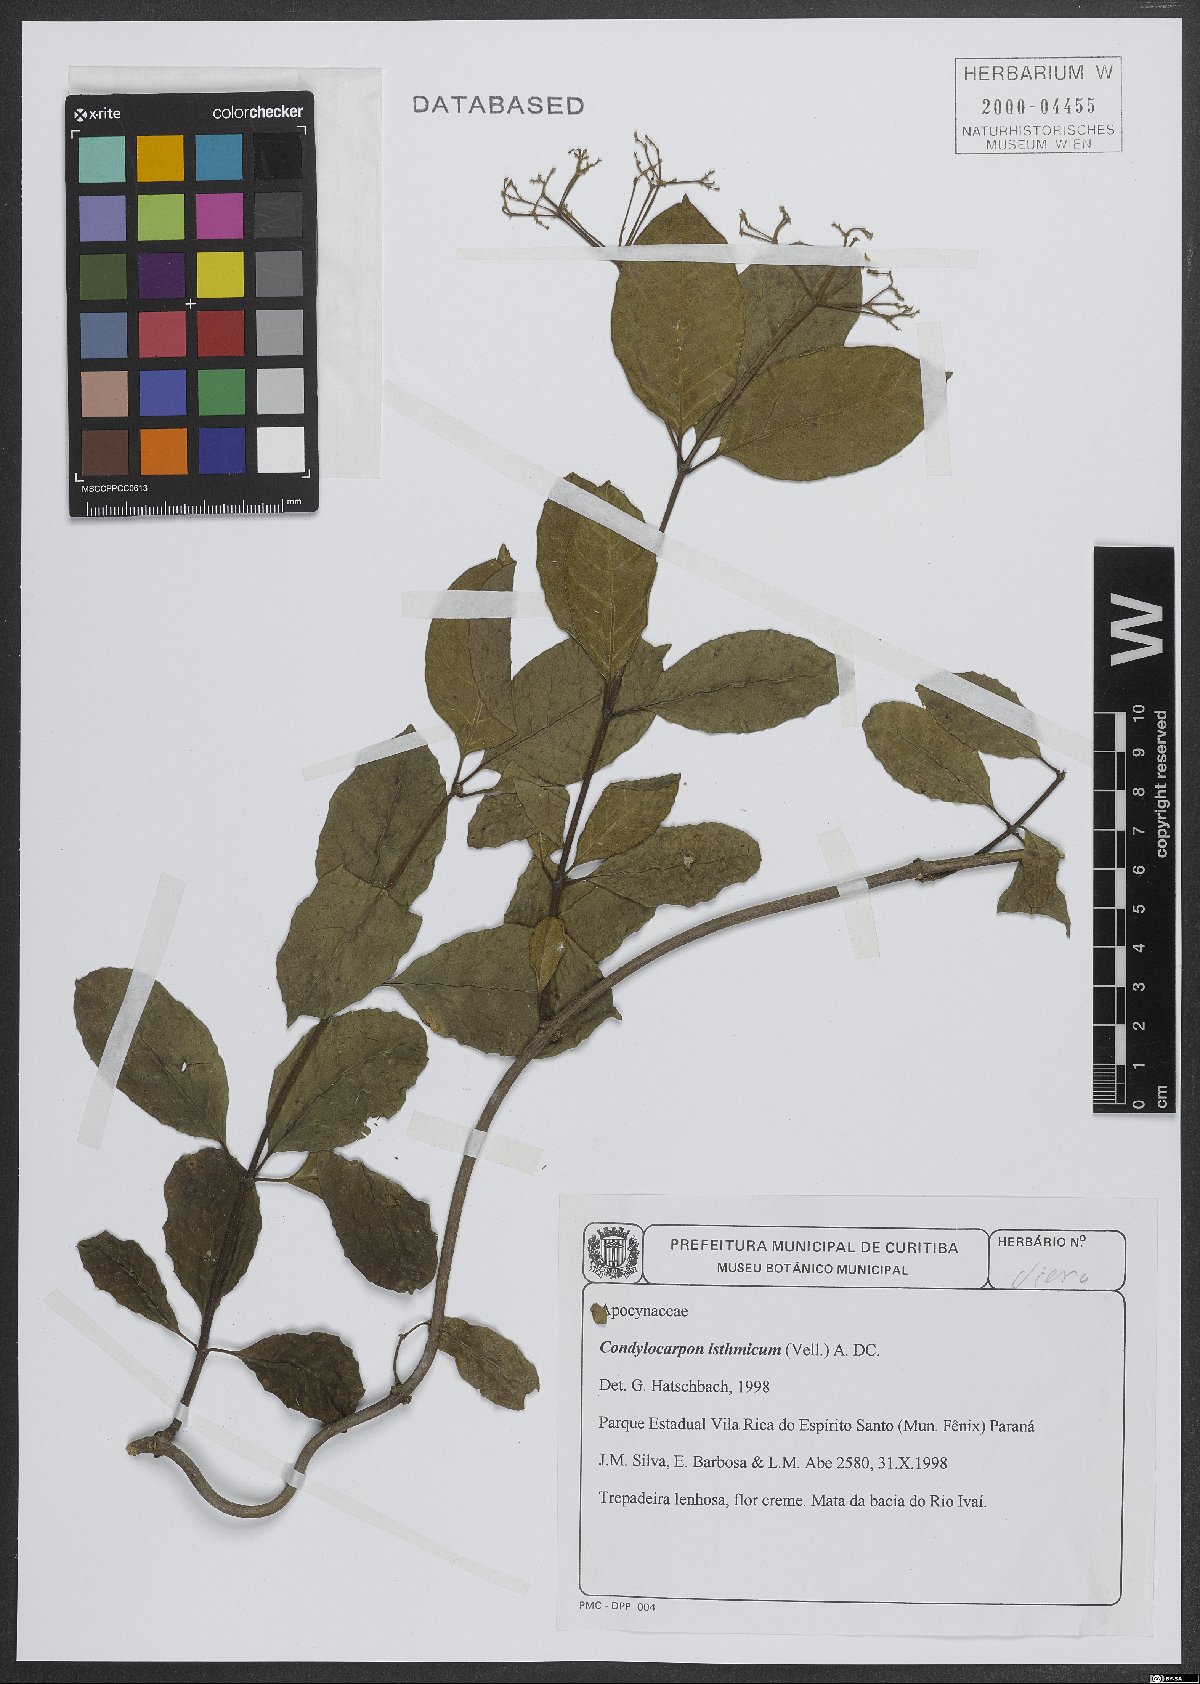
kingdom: Plantae
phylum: Tracheophyta
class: Magnoliopsida
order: Gentianales
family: Apocynaceae
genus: Condylocarpon
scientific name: Condylocarpon isthmicum
